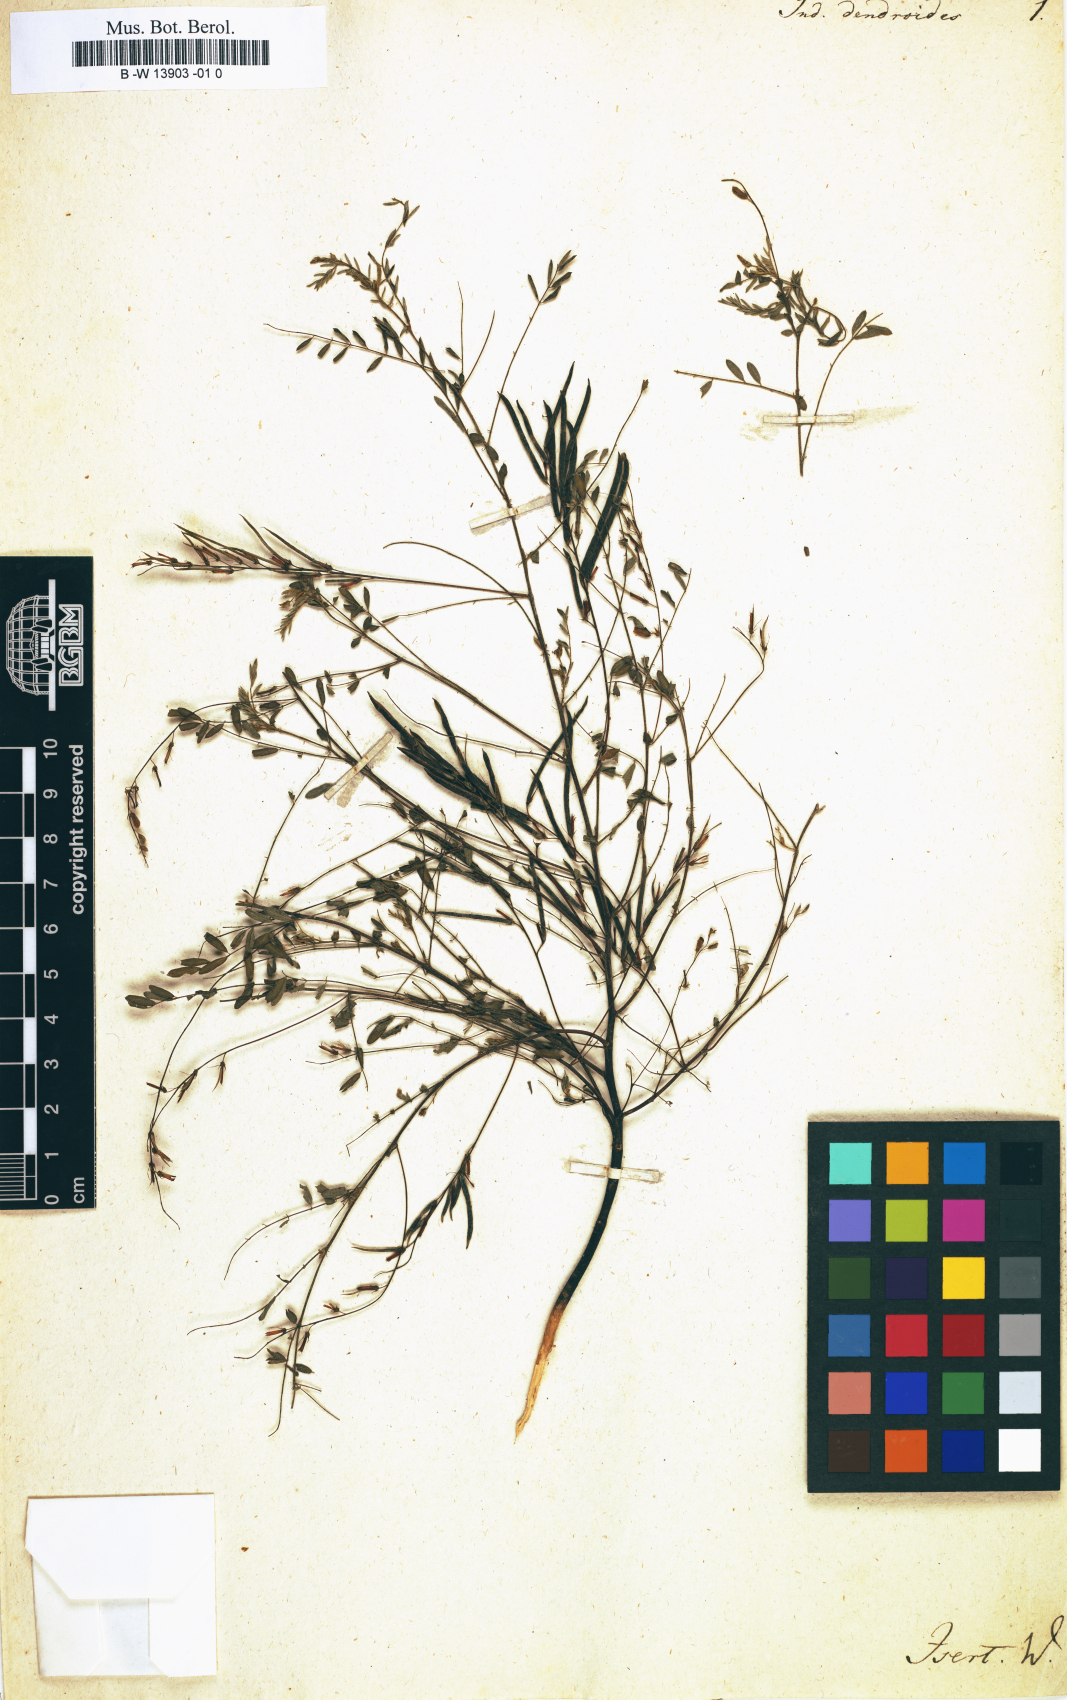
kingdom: Plantae
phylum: Tracheophyta
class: Magnoliopsida
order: Fabales
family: Fabaceae
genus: Indigofera
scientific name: Indigofera dendroides
